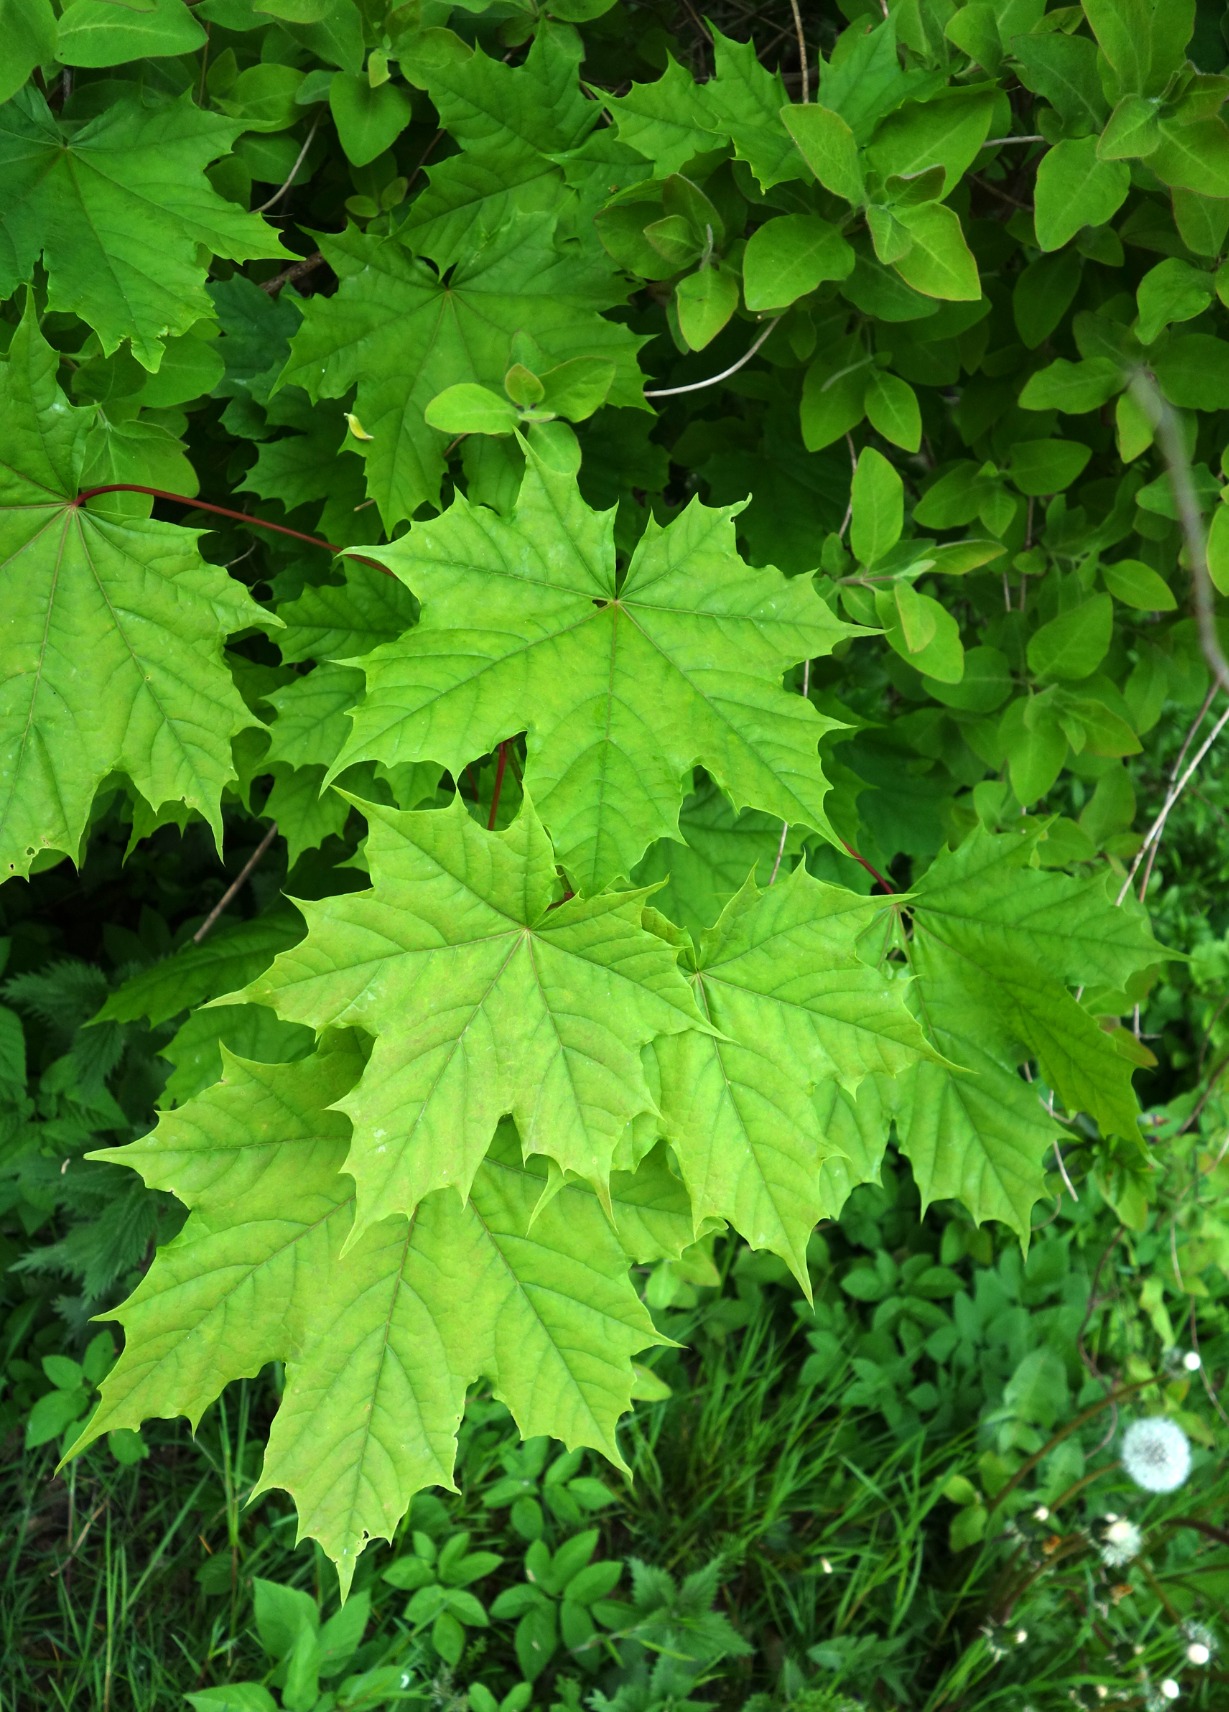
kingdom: Plantae
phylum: Tracheophyta
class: Magnoliopsida
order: Sapindales
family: Sapindaceae
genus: Acer
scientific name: Acer platanoides
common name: Spids-løn
